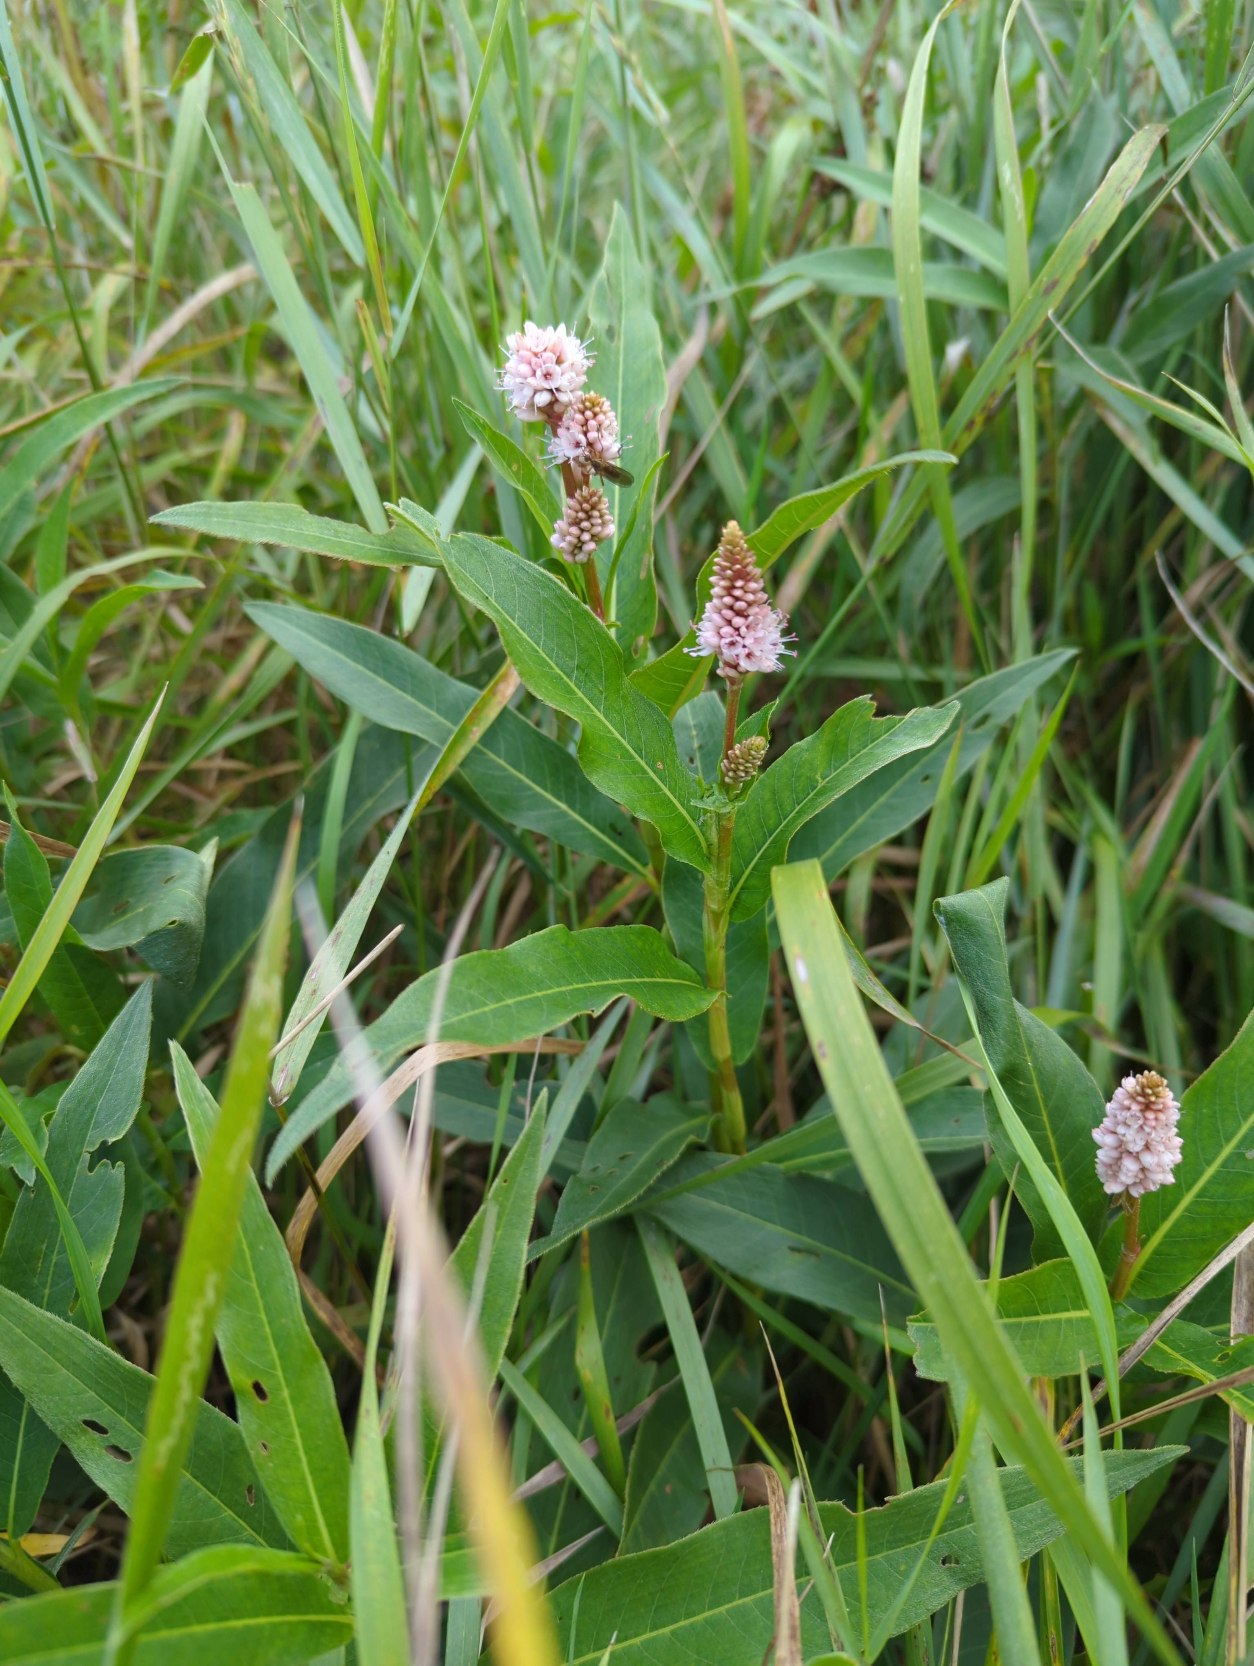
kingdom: Plantae
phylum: Tracheophyta
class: Magnoliopsida
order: Caryophyllales
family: Polygonaceae
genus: Persicaria
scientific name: Persicaria amphibia
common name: Vand-pileurt
